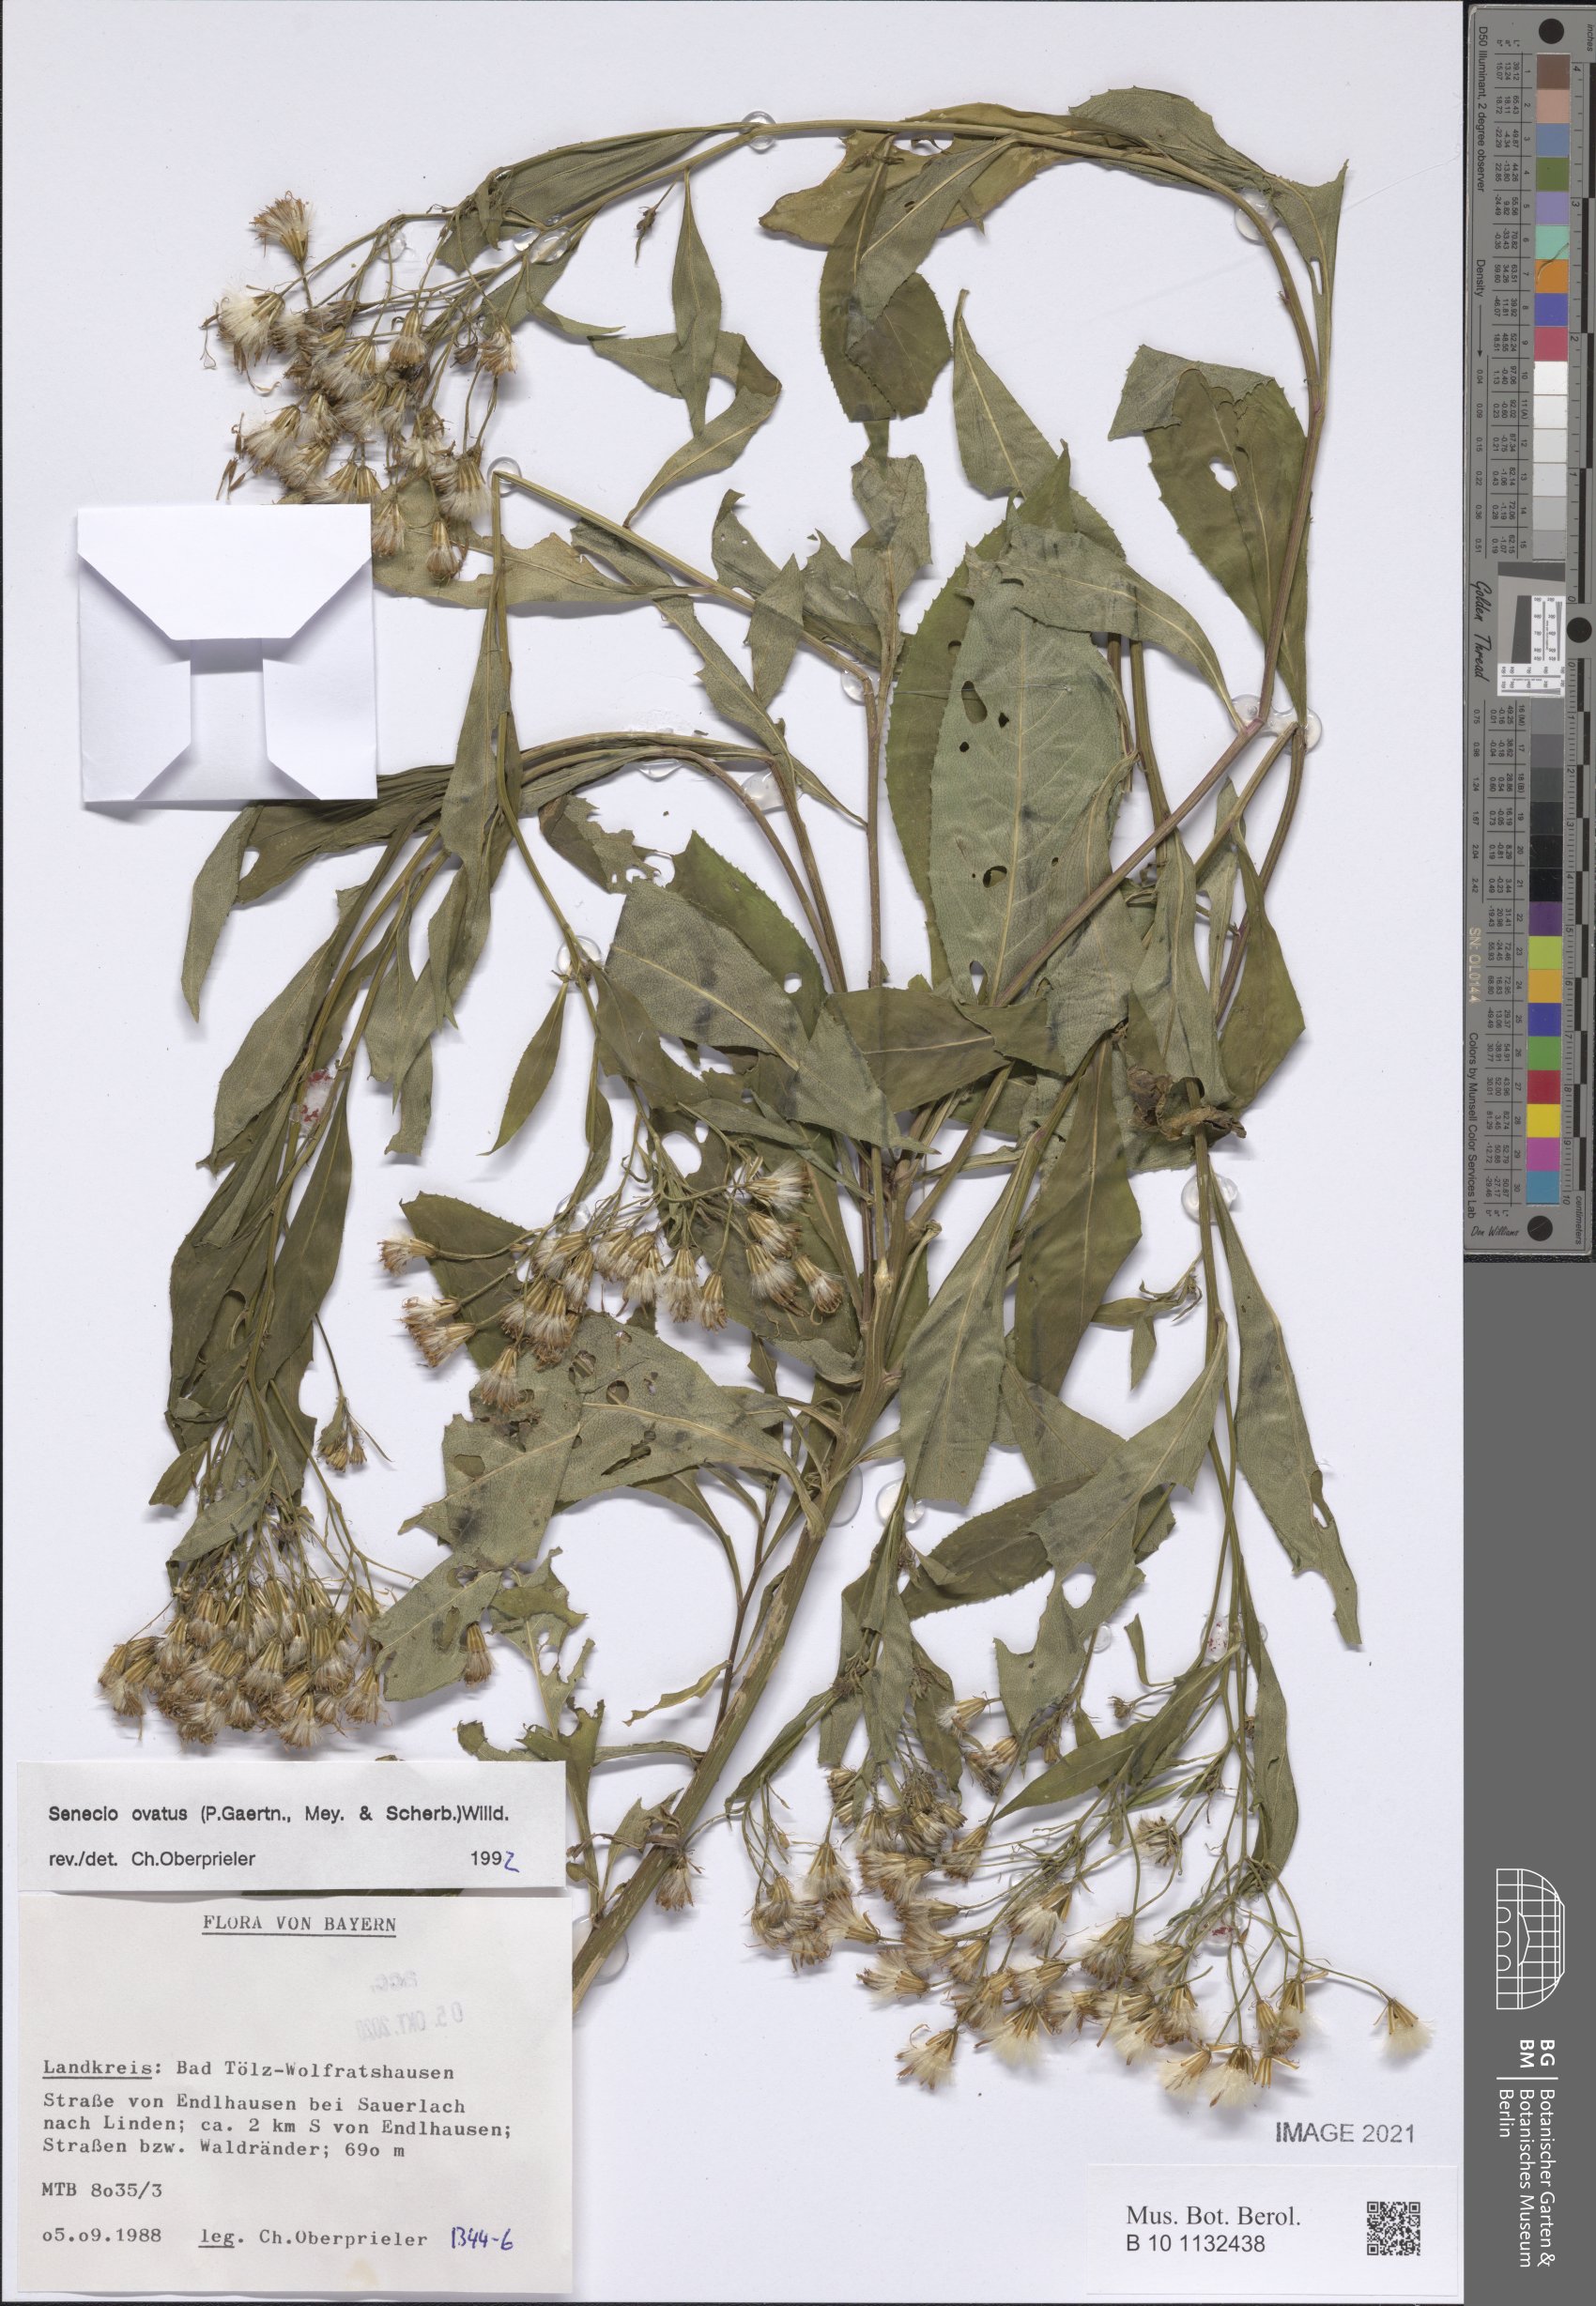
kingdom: Plantae
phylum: Tracheophyta
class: Magnoliopsida
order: Asterales
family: Asteraceae
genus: Senecio
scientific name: Senecio ovatus
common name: Wood ragwort
